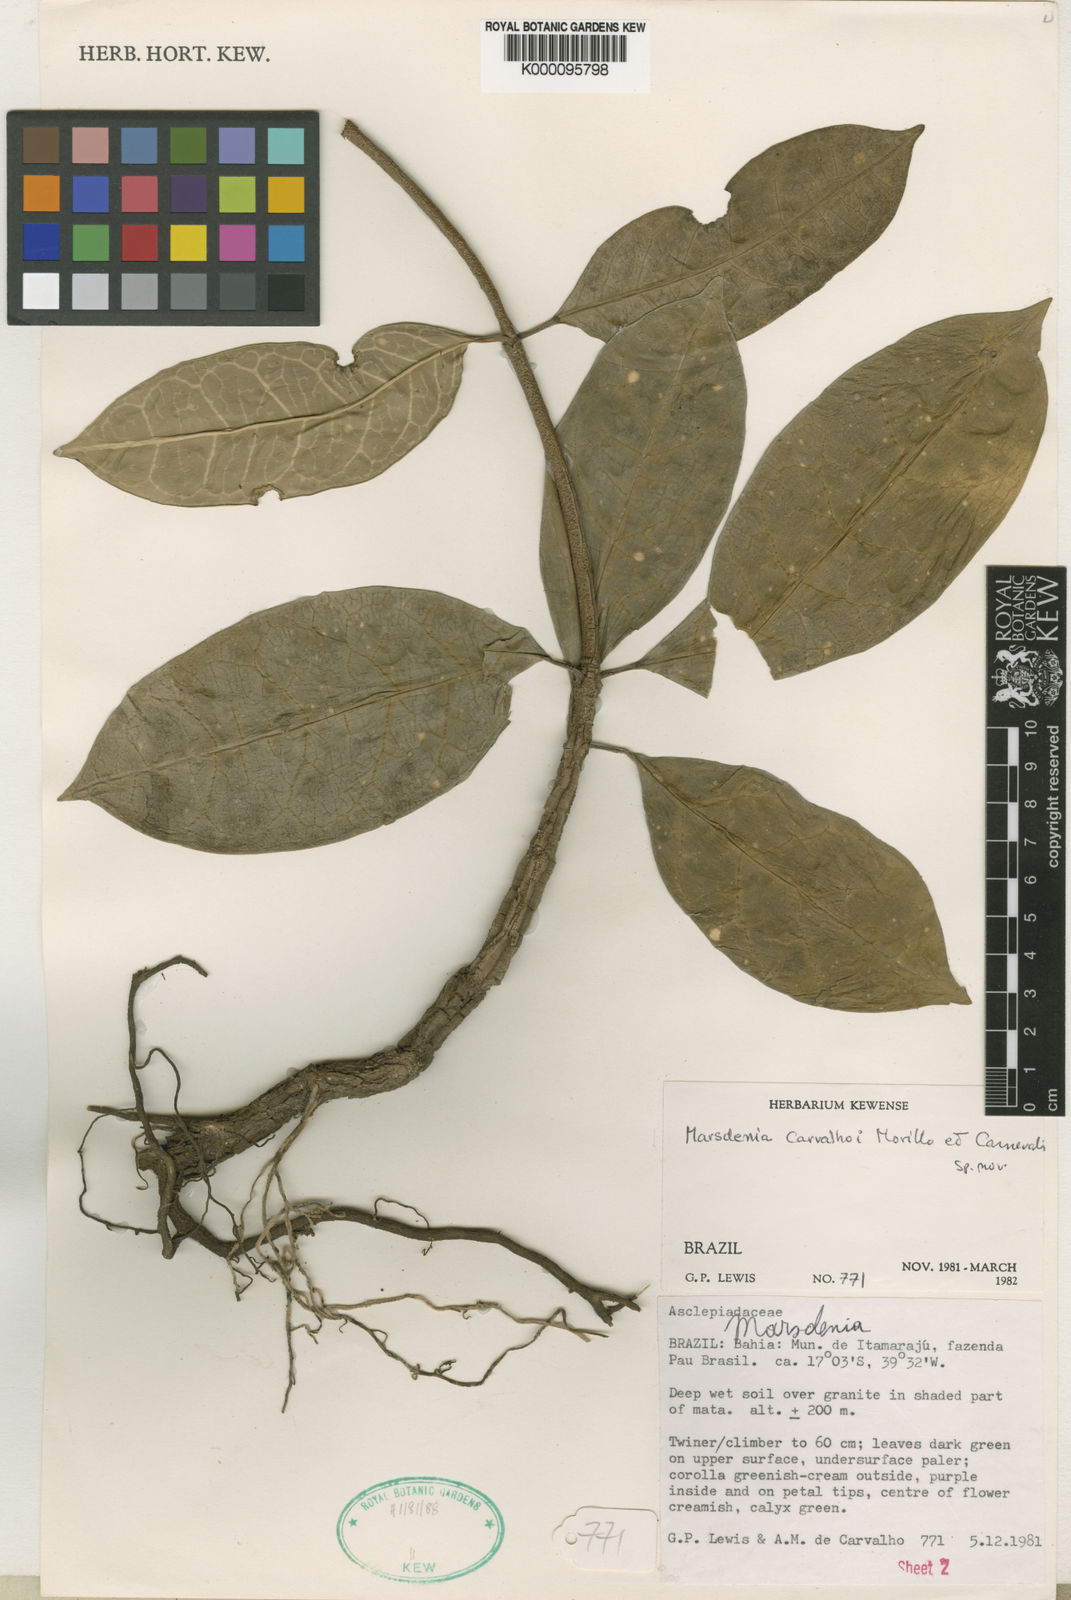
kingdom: Plantae
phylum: Tracheophyta
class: Magnoliopsida
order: Gentianales
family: Apocynaceae
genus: Ruehssia
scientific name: Ruehssia carvalhoi
